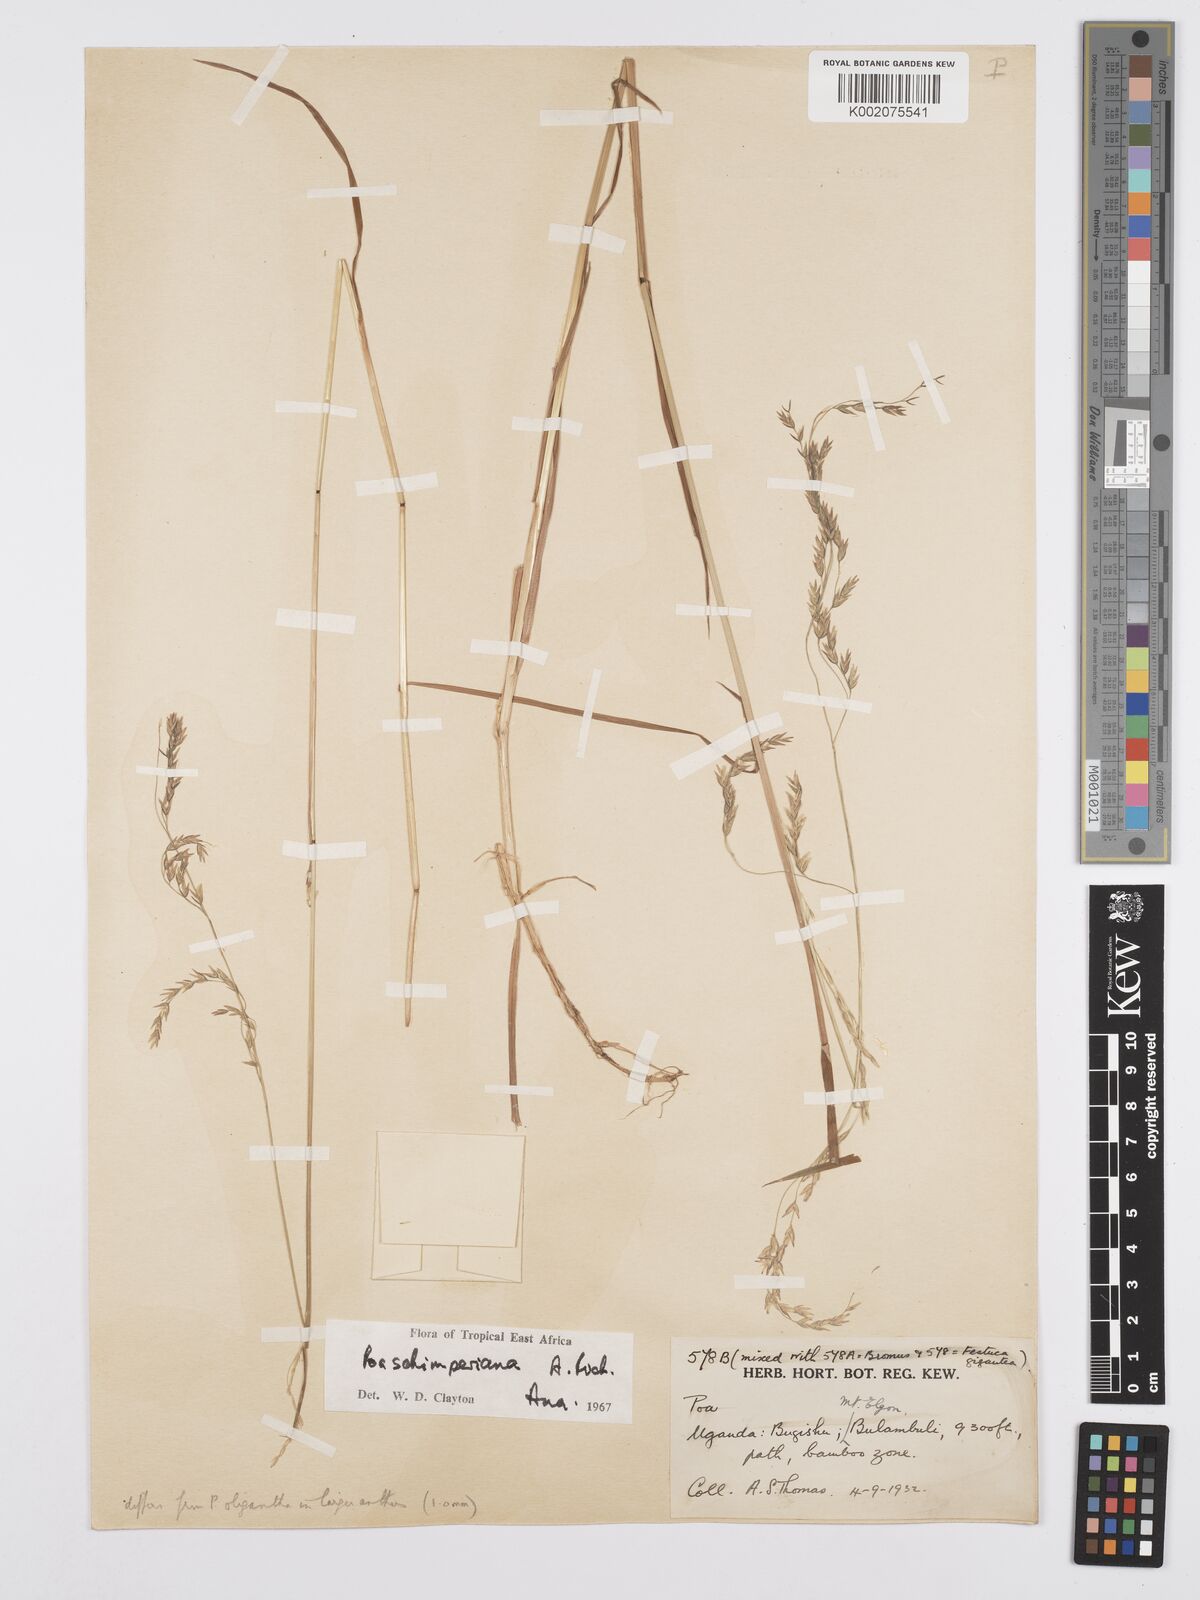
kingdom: Plantae
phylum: Tracheophyta
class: Liliopsida
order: Poales
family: Poaceae
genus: Poa
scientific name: Poa schimperiana
